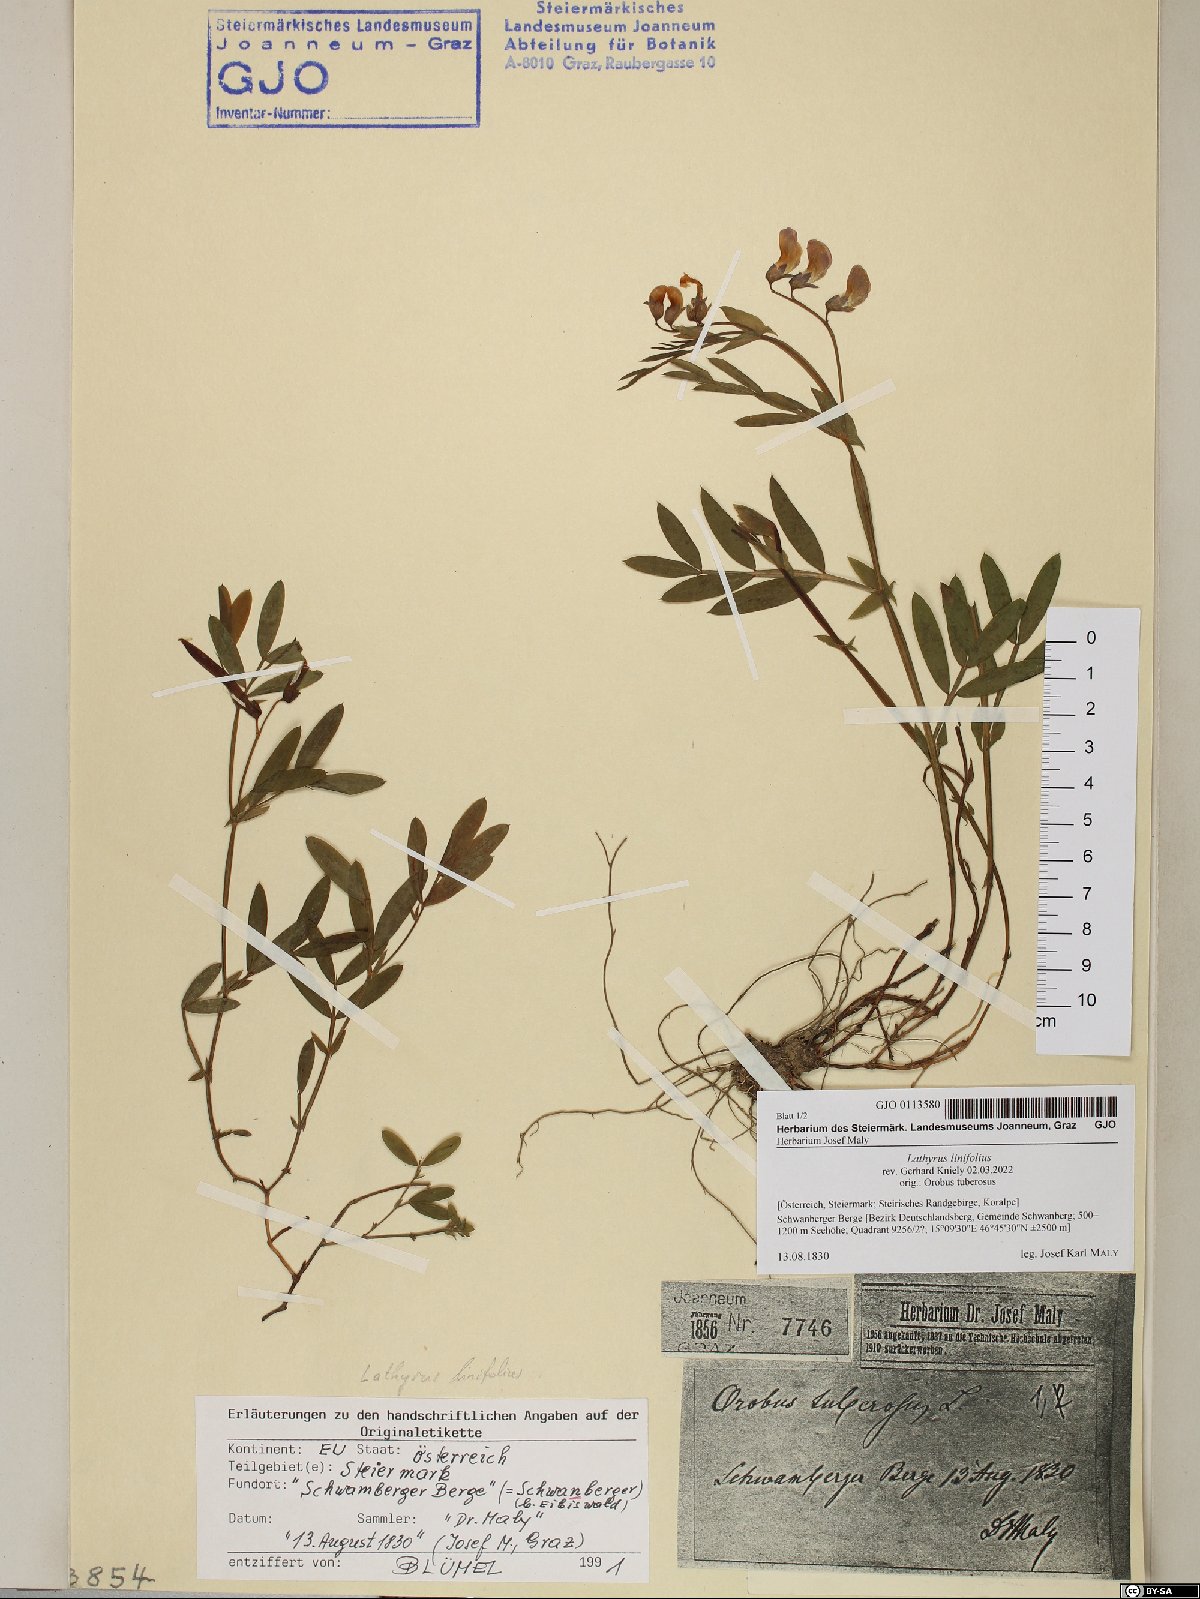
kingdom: Plantae
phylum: Tracheophyta
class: Magnoliopsida
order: Fabales
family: Fabaceae
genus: Lathyrus
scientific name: Lathyrus linifolius
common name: Bitter-vetch
